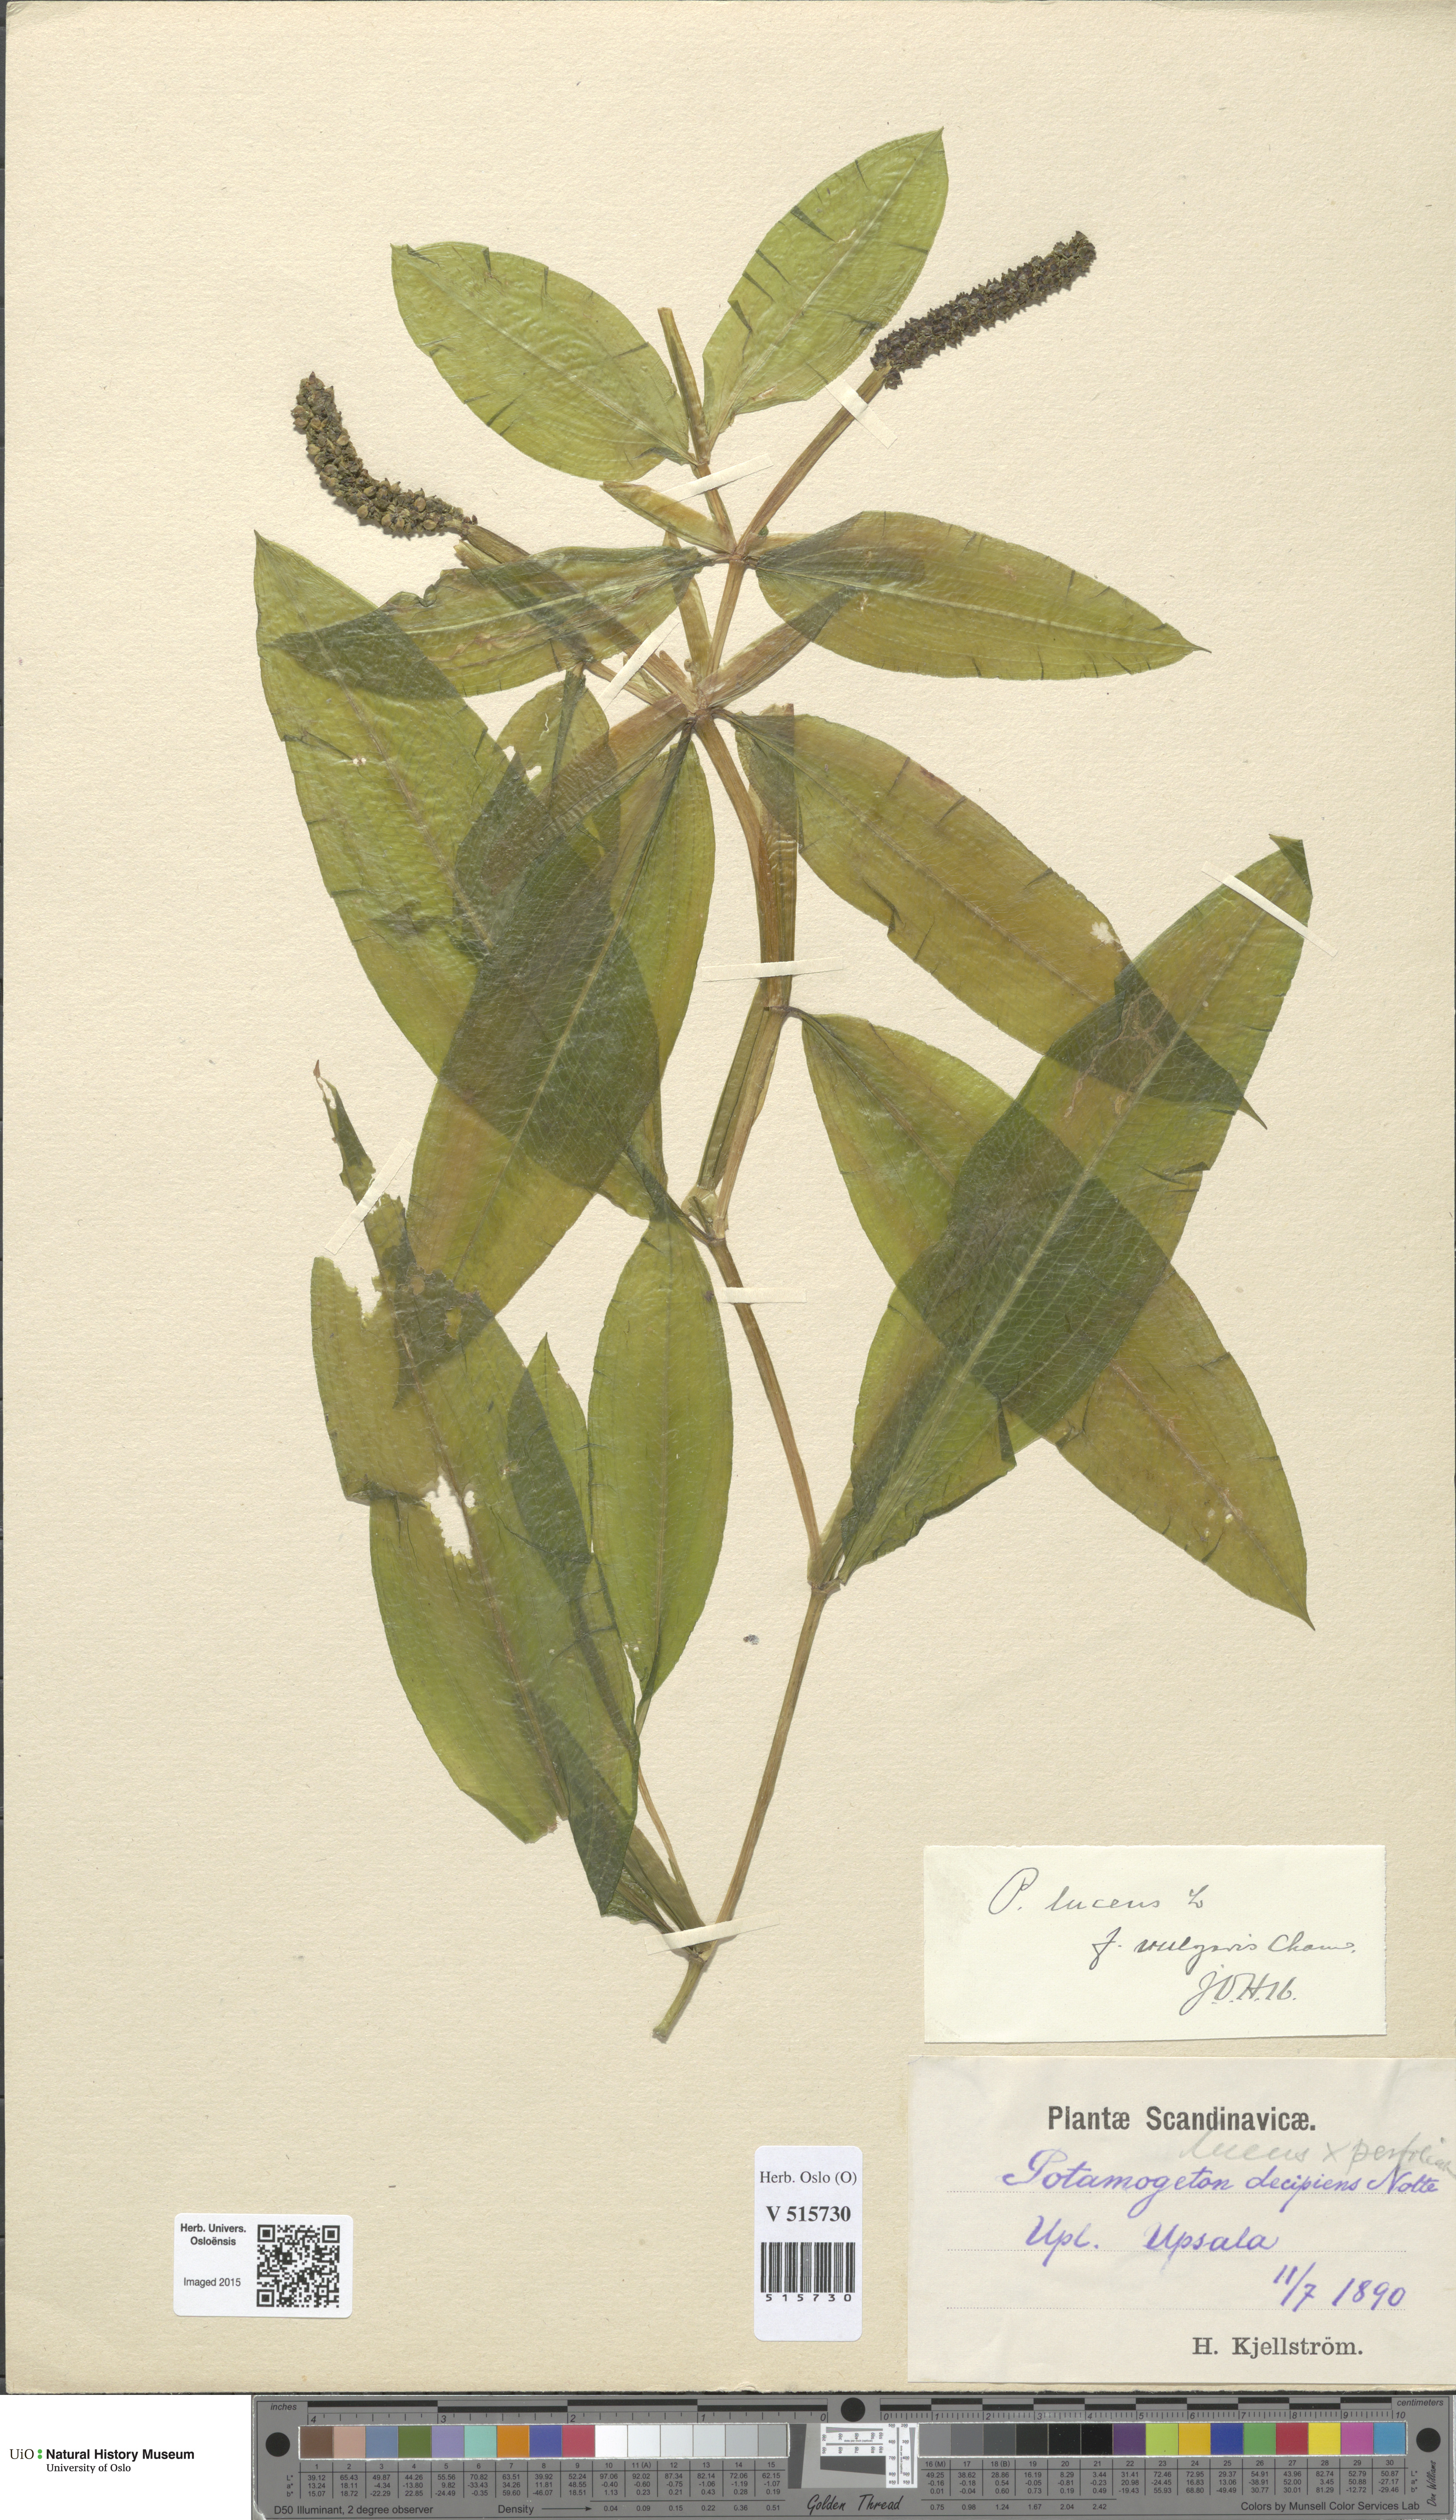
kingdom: Plantae
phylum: Tracheophyta
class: Liliopsida
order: Alismatales
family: Potamogetonaceae
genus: Potamogeton
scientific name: Potamogeton
